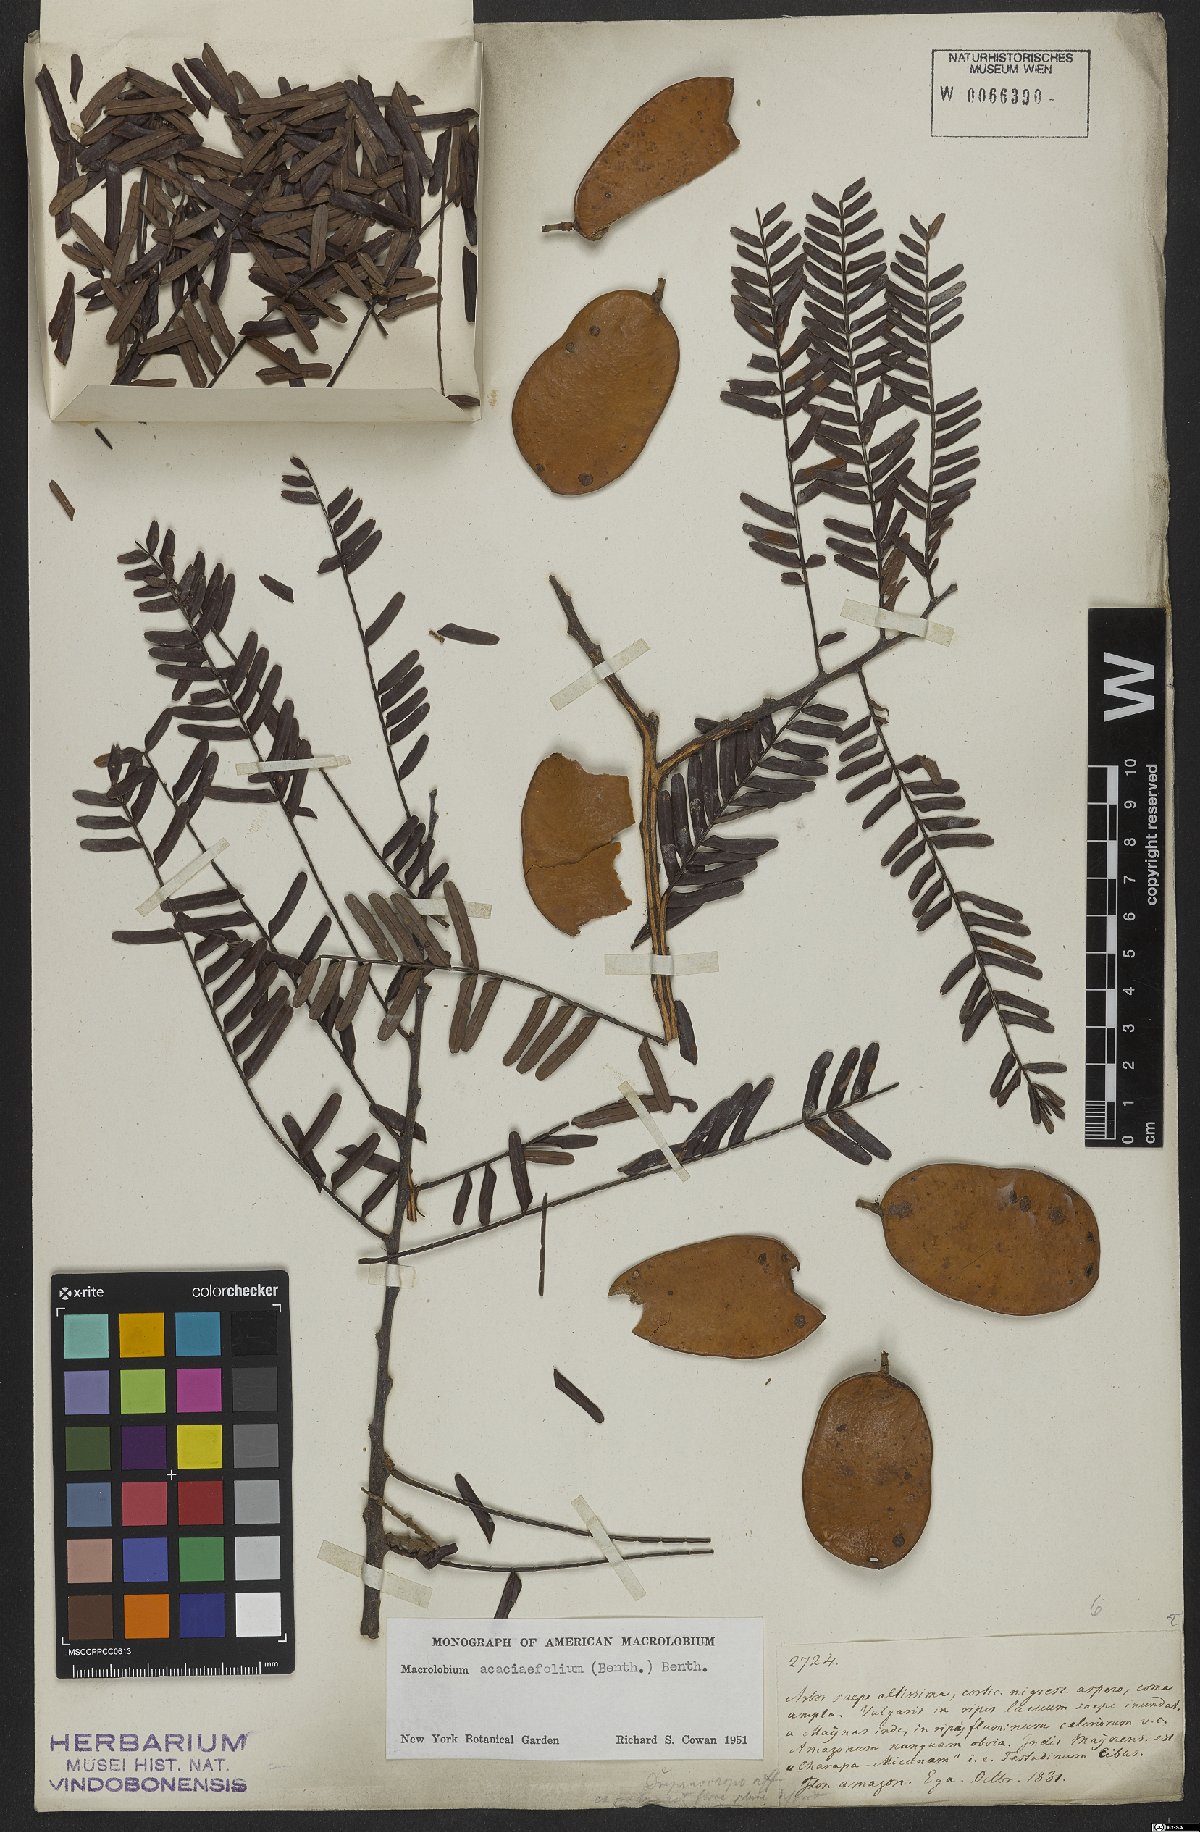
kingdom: Plantae
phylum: Tracheophyta
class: Magnoliopsida
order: Fabales
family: Fabaceae
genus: Macrolobium
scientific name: Macrolobium acaciifolium
